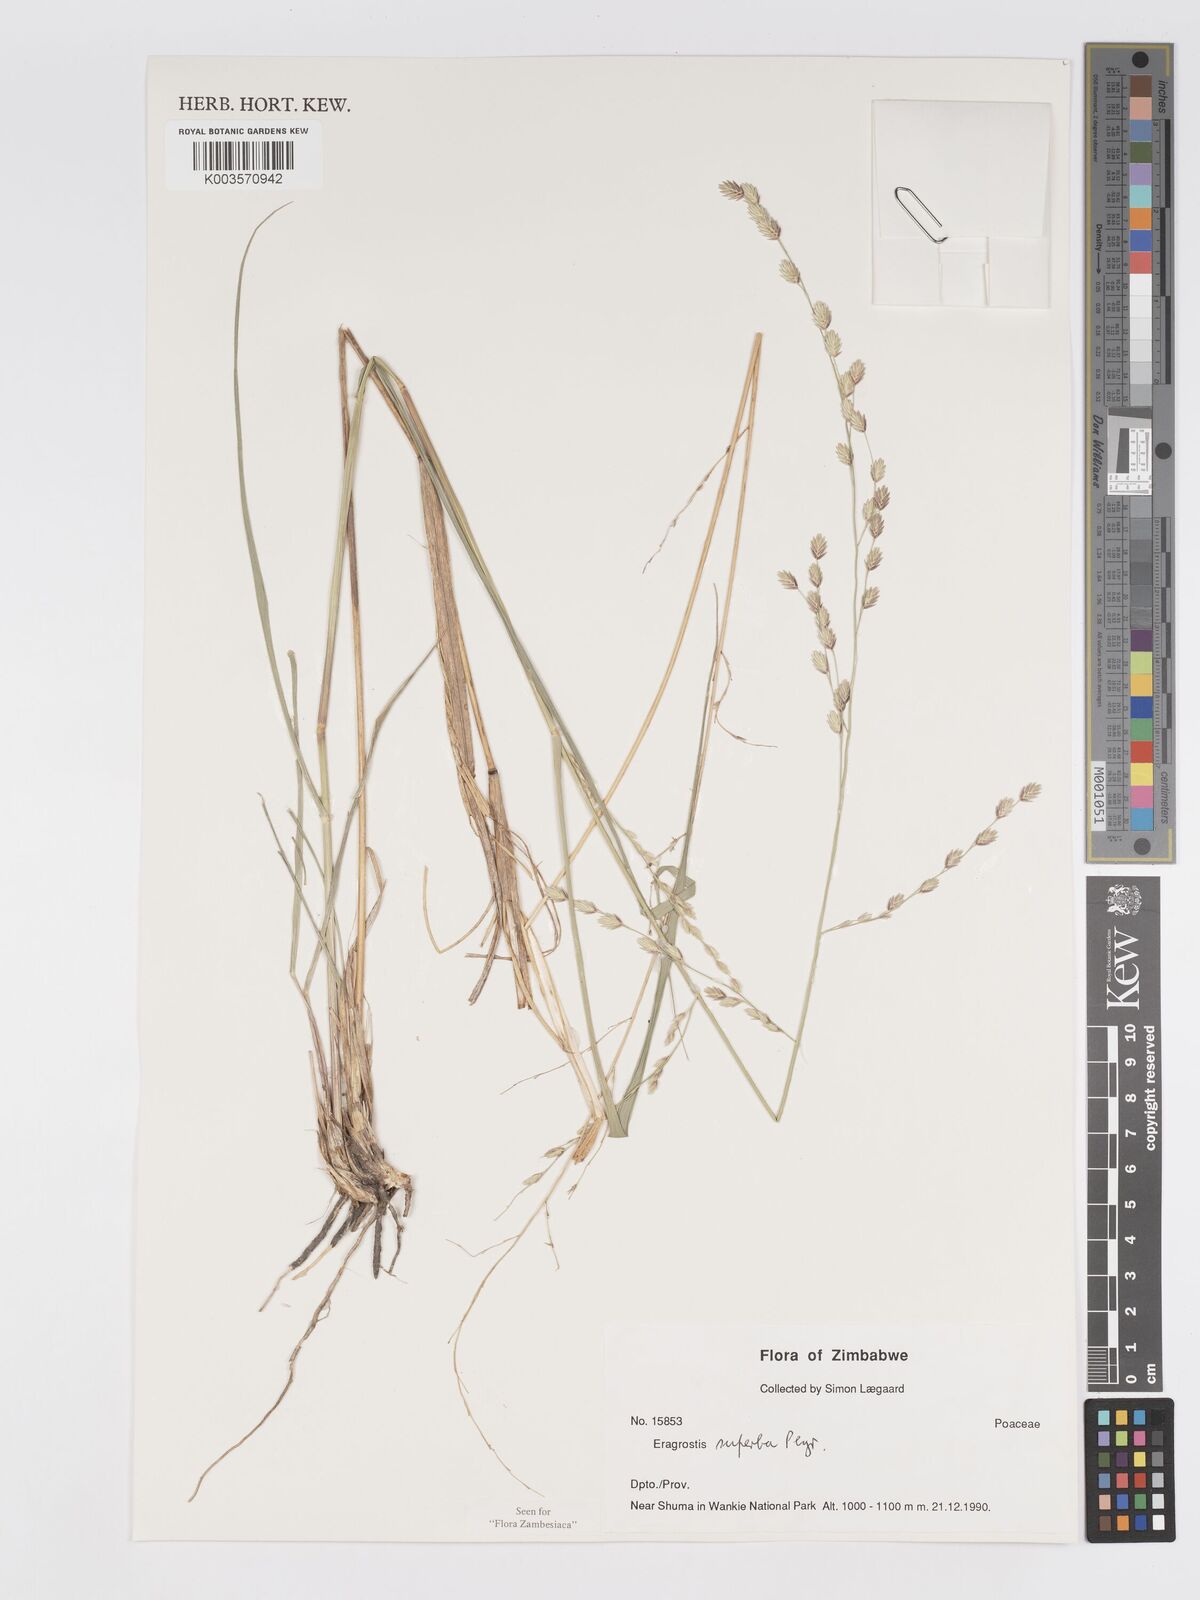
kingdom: Plantae
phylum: Tracheophyta
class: Liliopsida
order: Poales
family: Poaceae
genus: Eragrostis
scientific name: Eragrostis superba
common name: Wilman lovegrass
